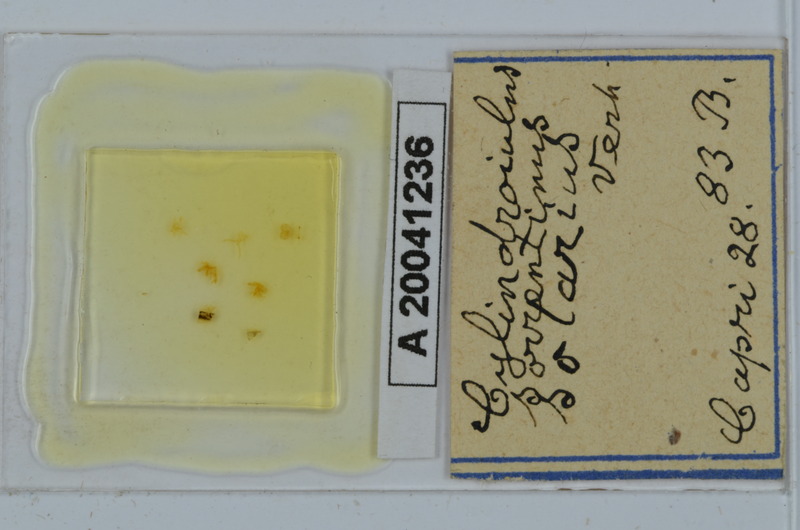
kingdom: Animalia
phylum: Arthropoda
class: Diplopoda
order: Julida
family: Julidae
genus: Cylindroiulus
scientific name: Cylindroiulus sorrentinus
